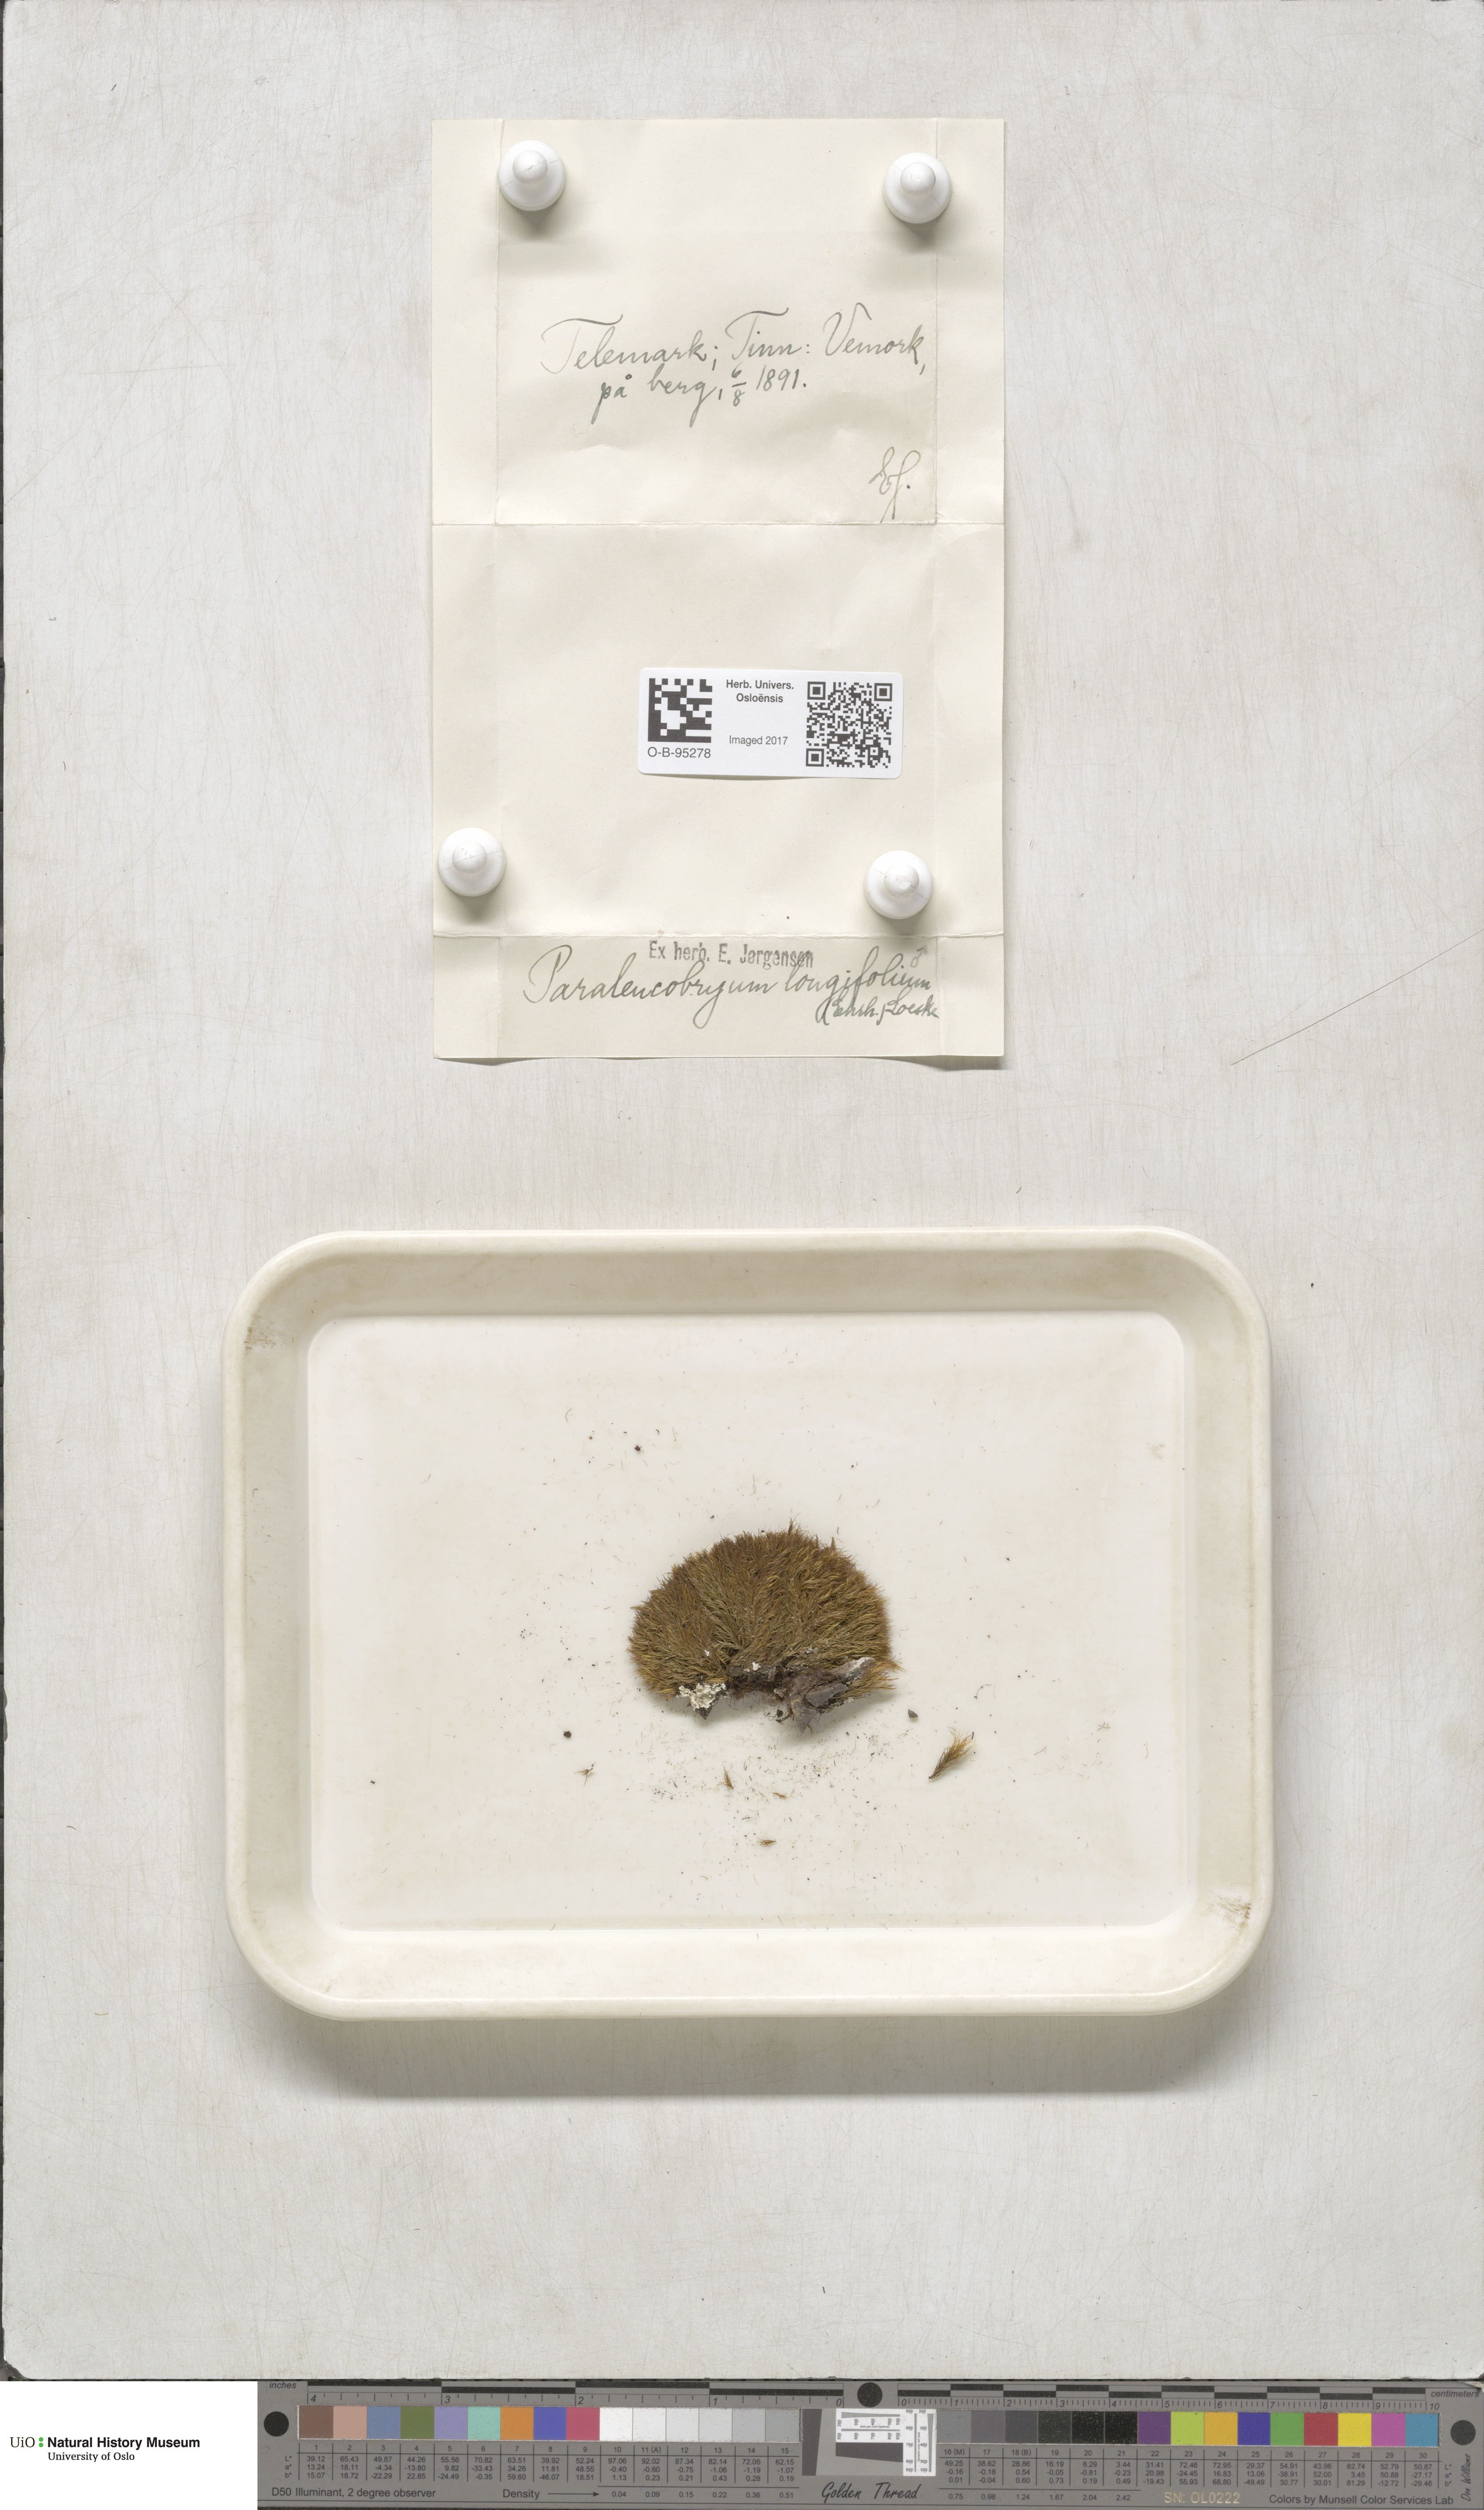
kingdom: Plantae
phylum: Bryophyta
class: Bryopsida
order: Dicranales
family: Dicranaceae
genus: Paraleucobryum
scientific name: Paraleucobryum longifolium
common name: Long-leaved fork moss
